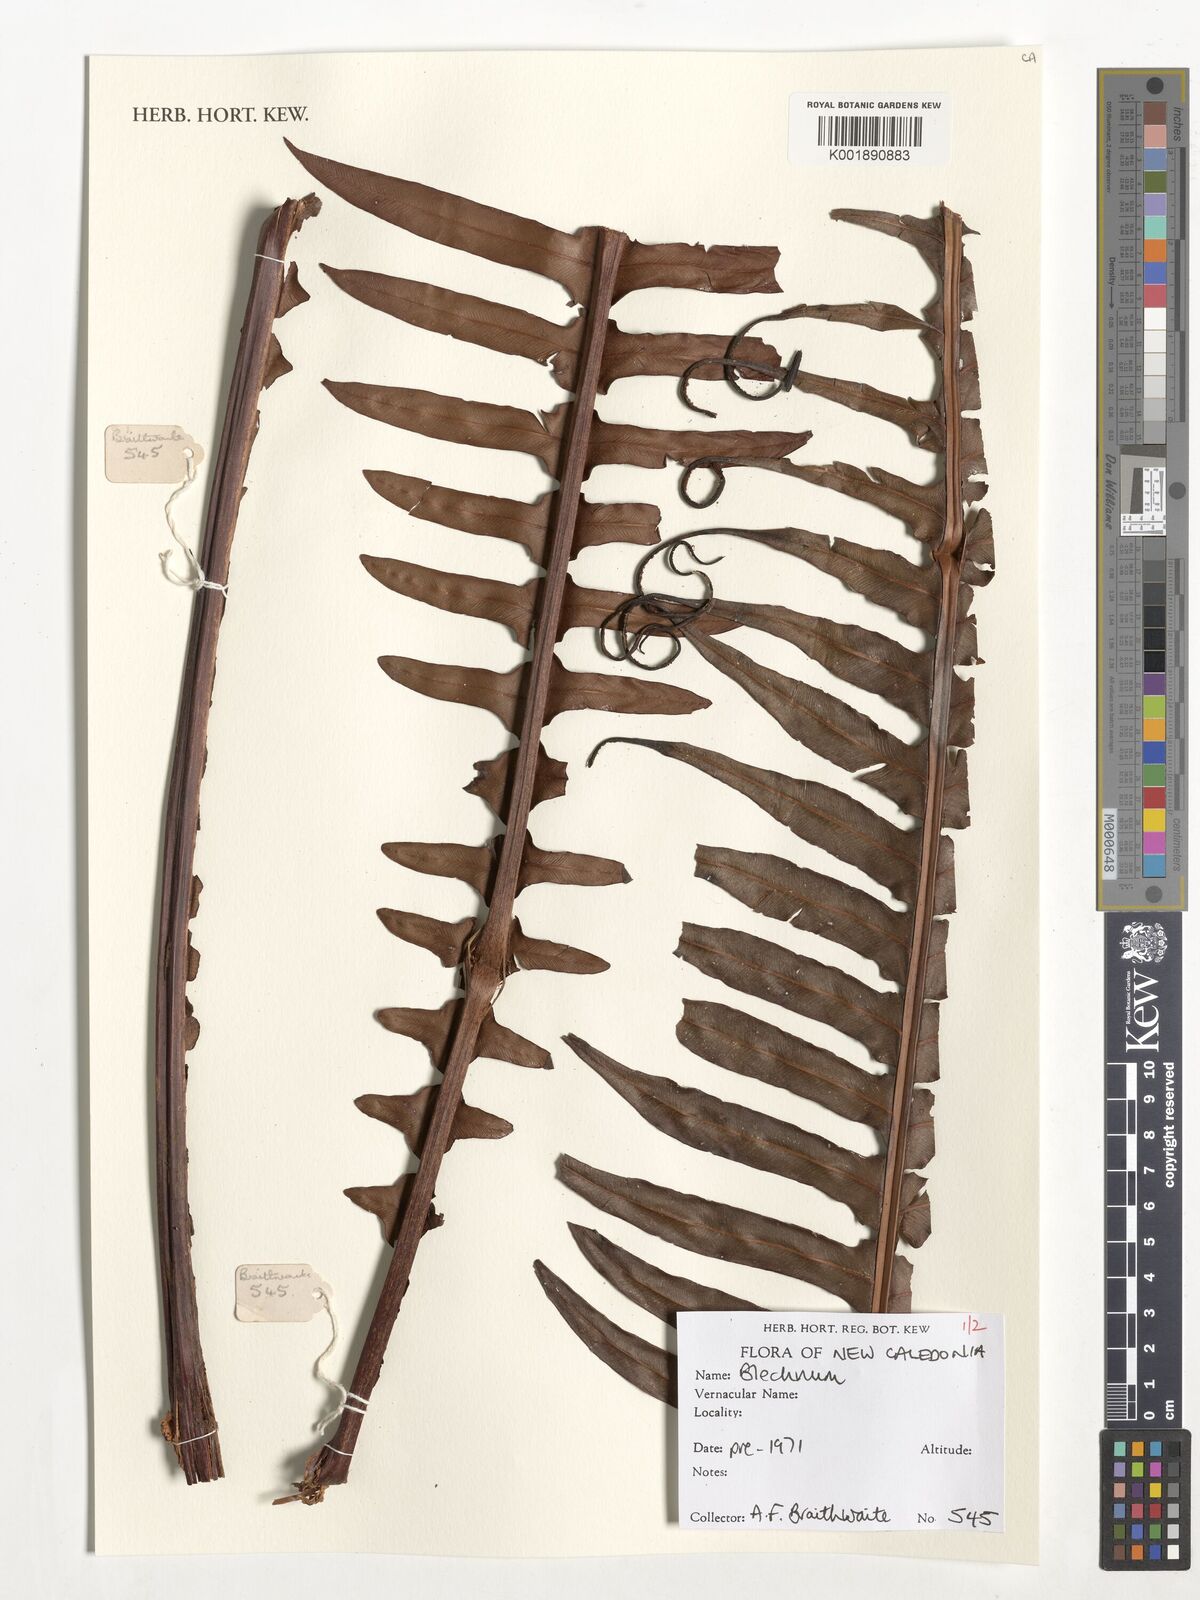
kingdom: Plantae
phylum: Tracheophyta
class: Polypodiopsida
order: Polypodiales
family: Blechnaceae
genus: Blechnum
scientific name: Blechnum
